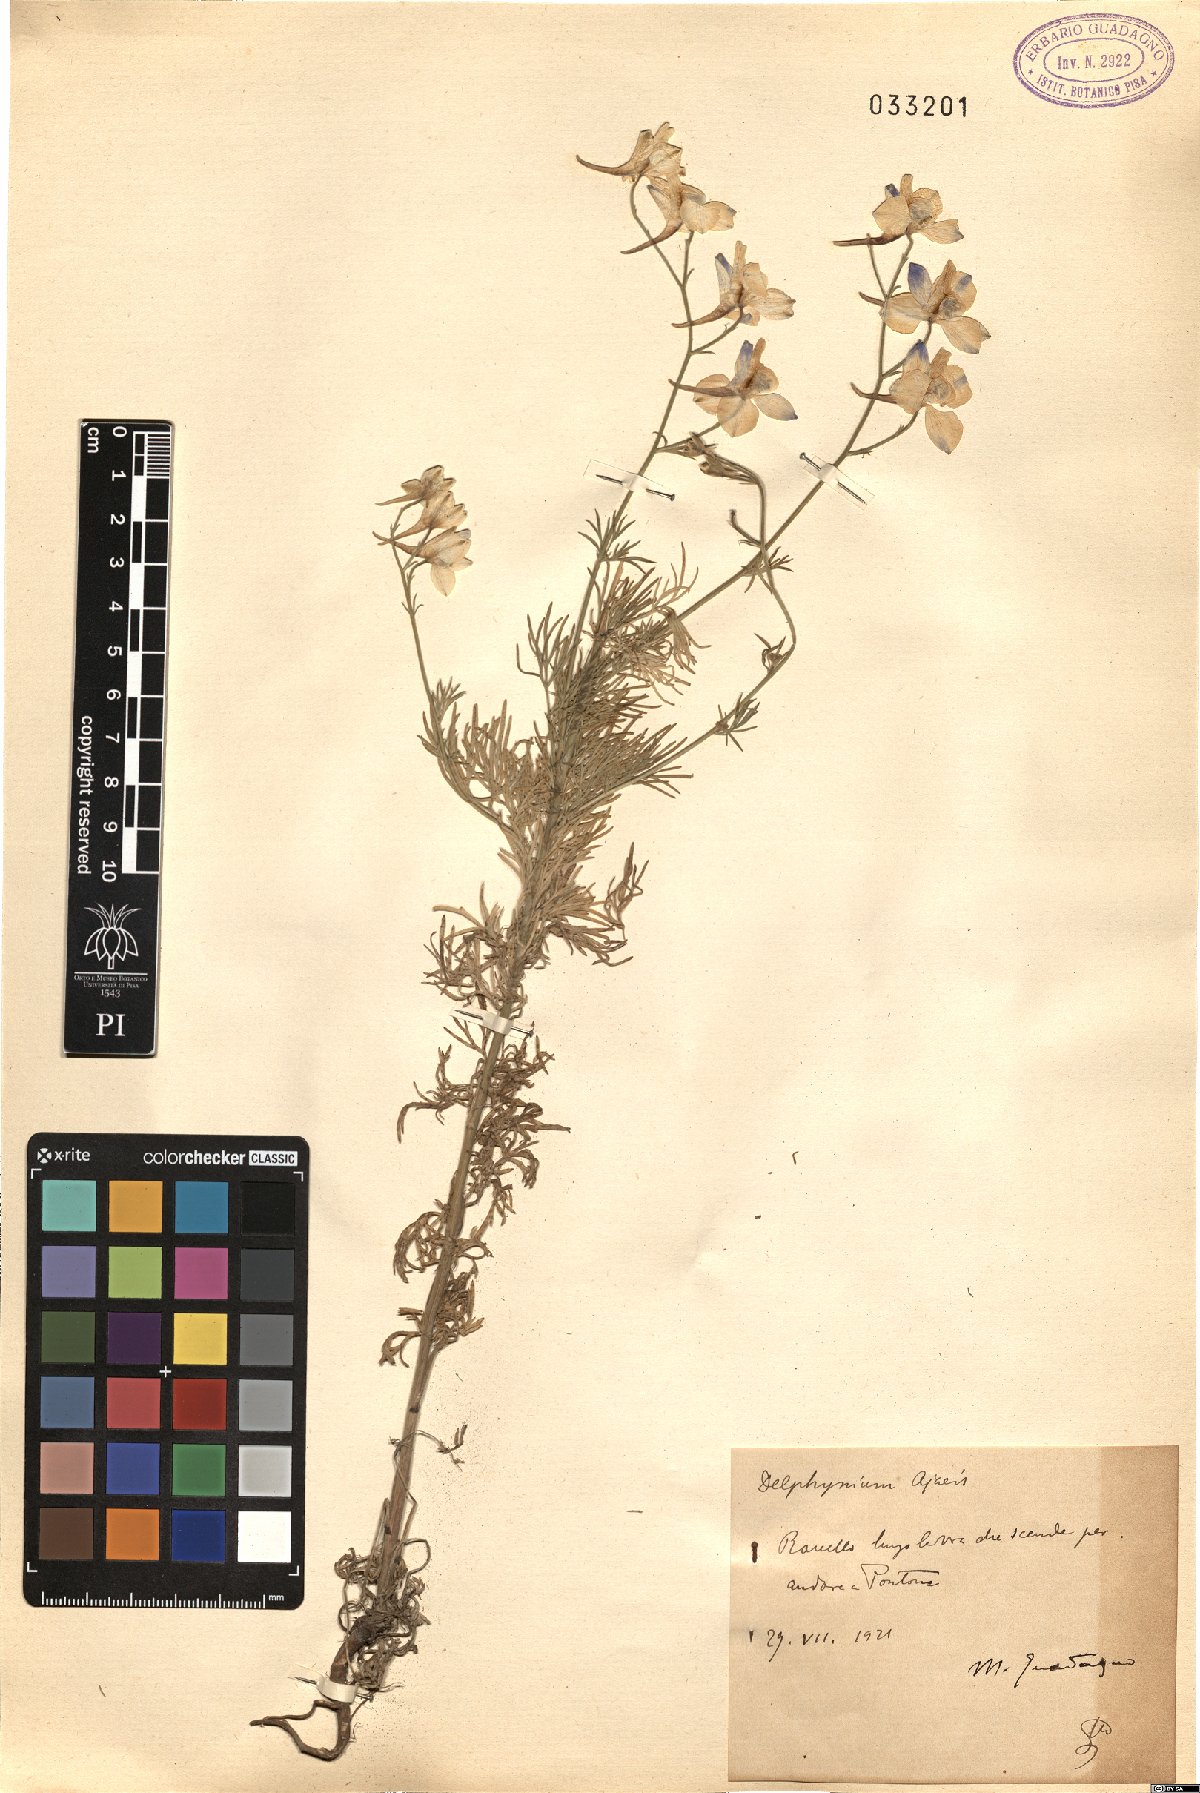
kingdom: Plantae
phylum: Tracheophyta
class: Magnoliopsida
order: Ranunculales
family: Ranunculaceae
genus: Delphinium
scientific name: Delphinium ajacis
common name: Doubtful knight's-spur
